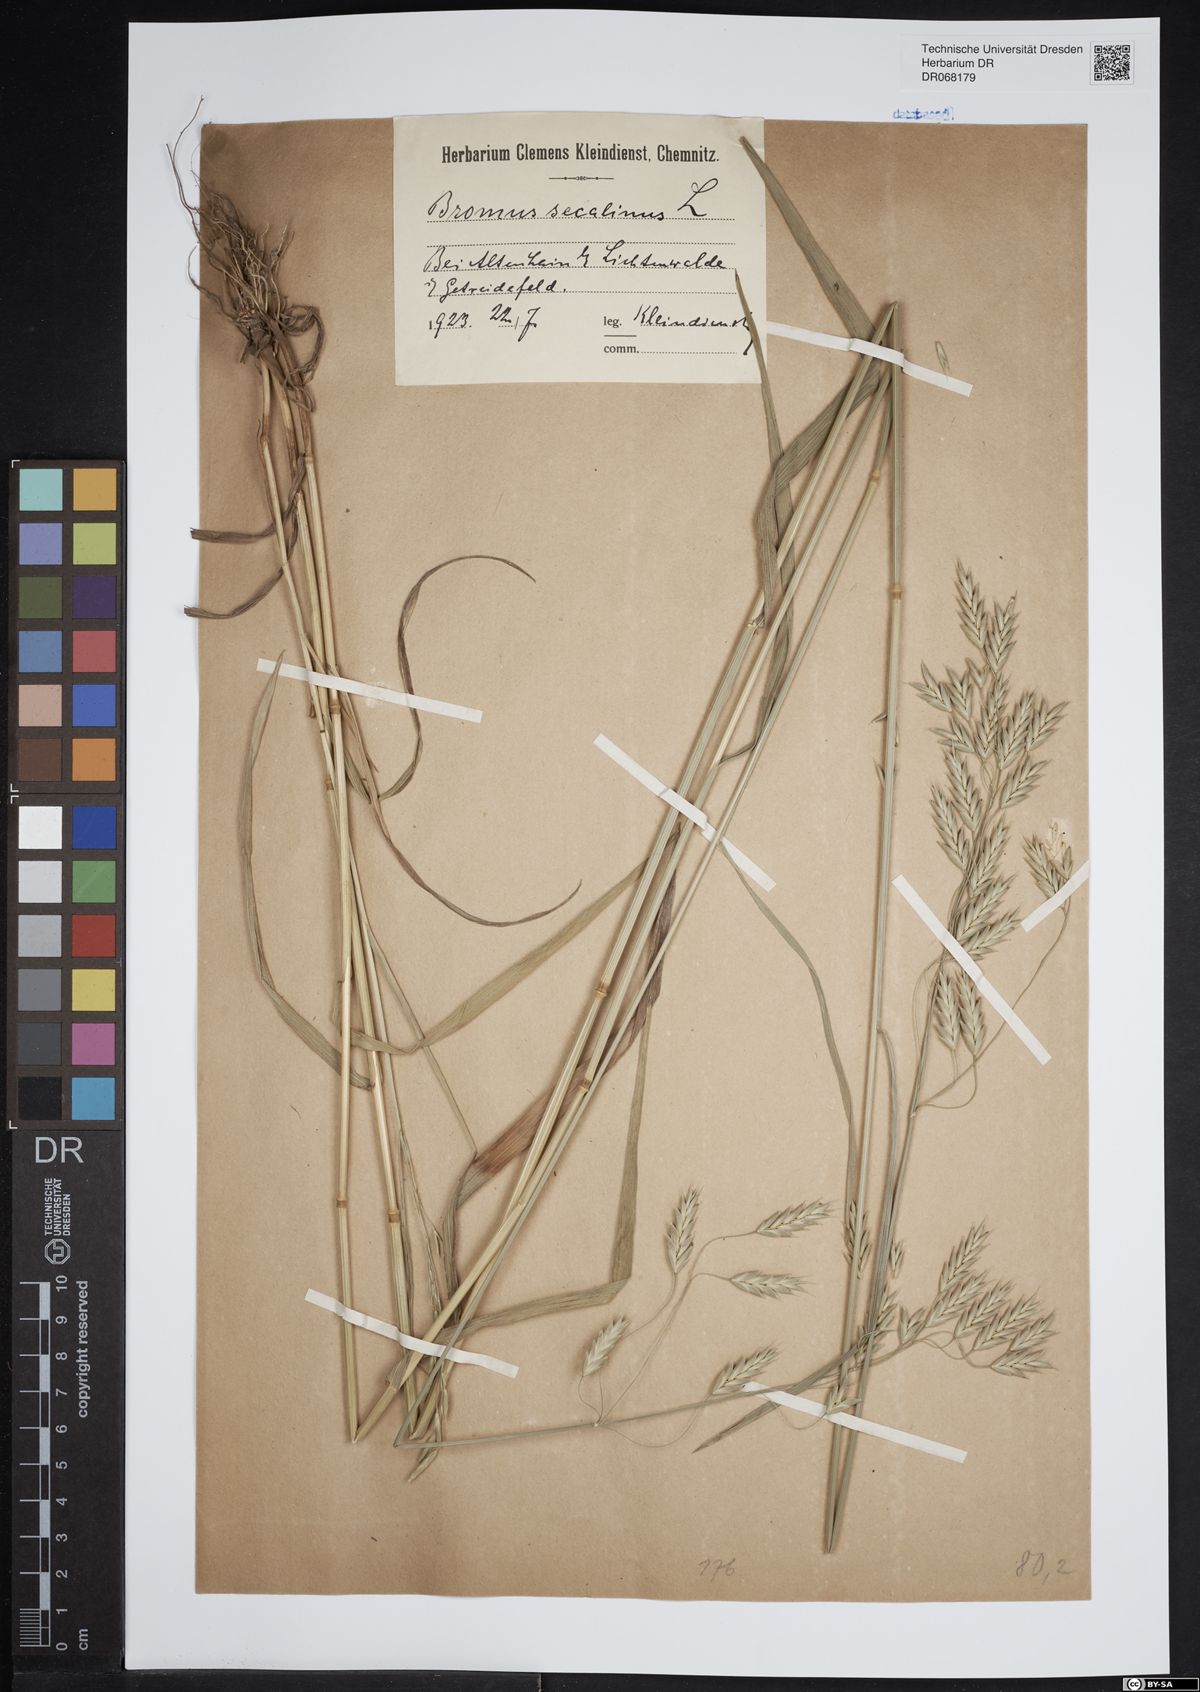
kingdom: Plantae
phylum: Tracheophyta
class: Liliopsida
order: Poales
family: Poaceae
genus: Bromus
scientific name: Bromus secalinus
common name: Rye brome
